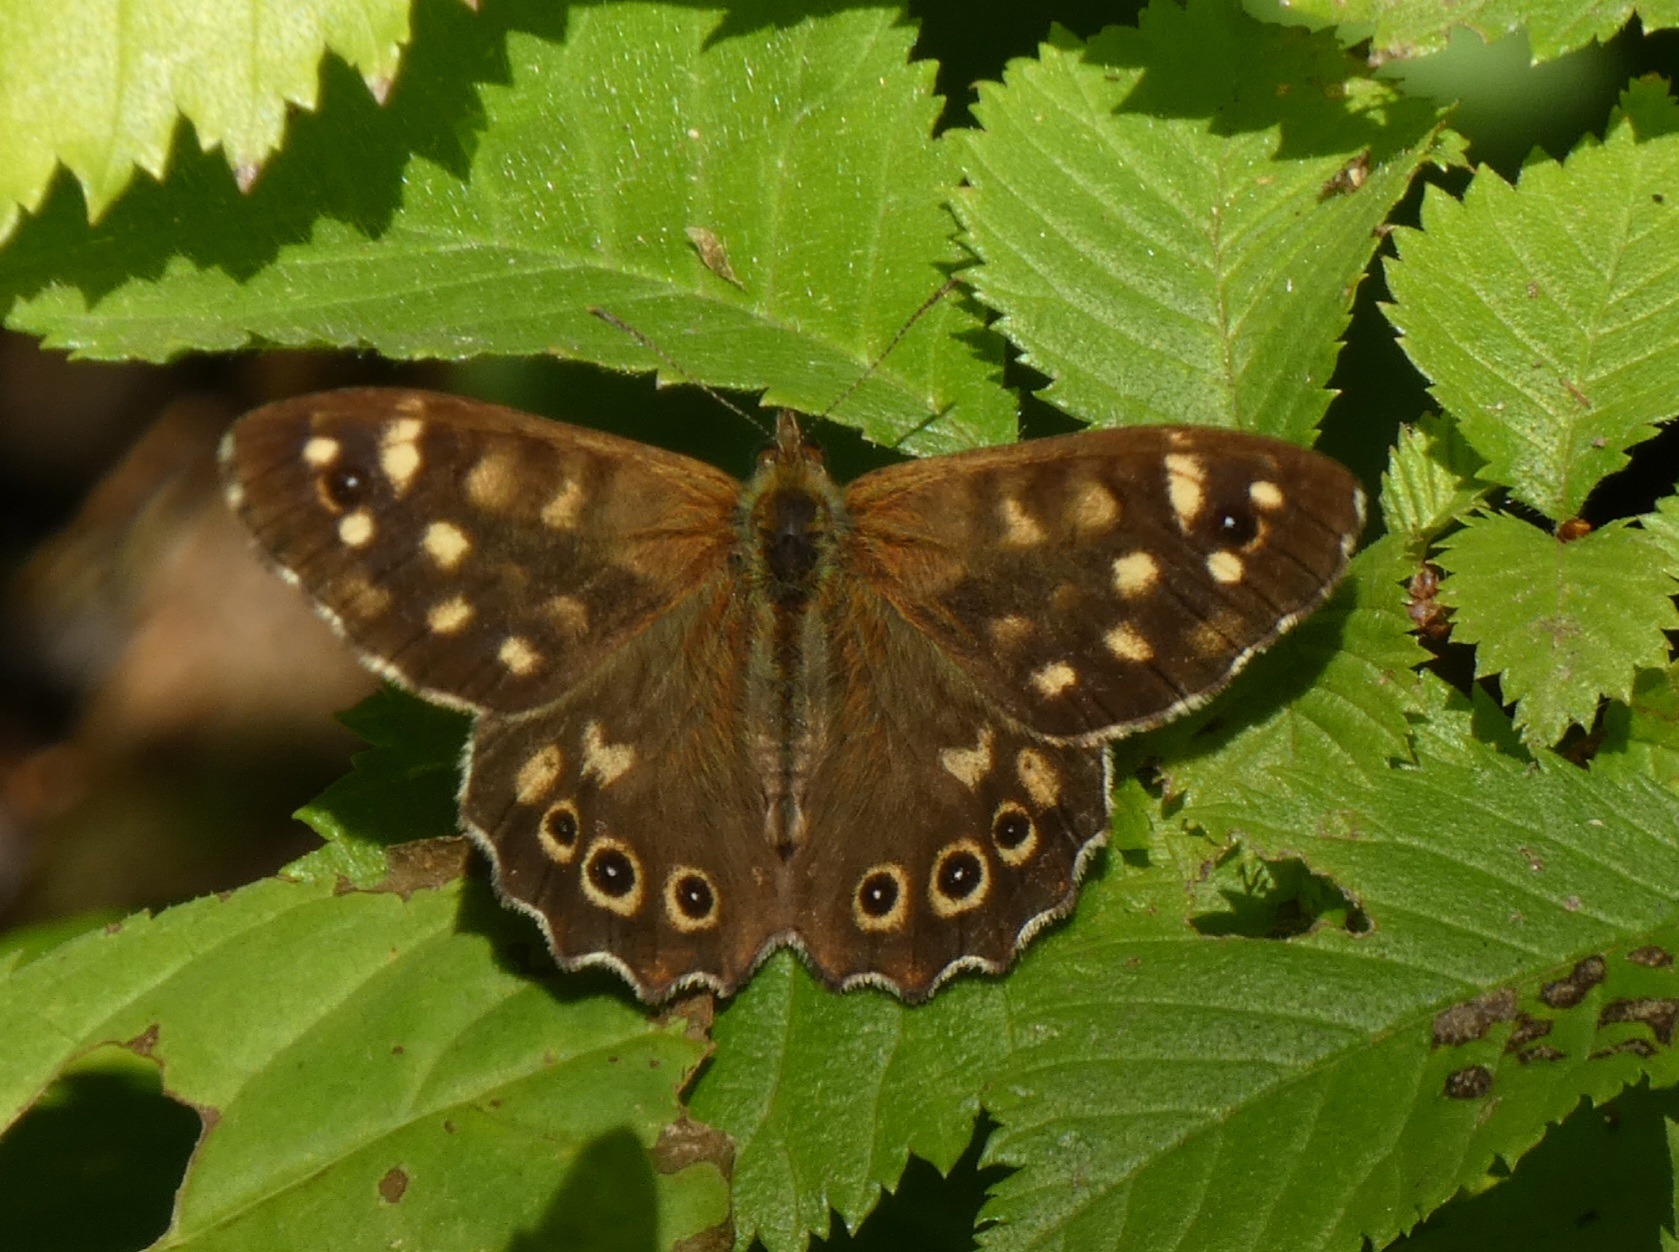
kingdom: Animalia
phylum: Arthropoda
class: Insecta
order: Lepidoptera
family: Nymphalidae
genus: Pararge
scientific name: Pararge aegeria
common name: Skovrandøje
